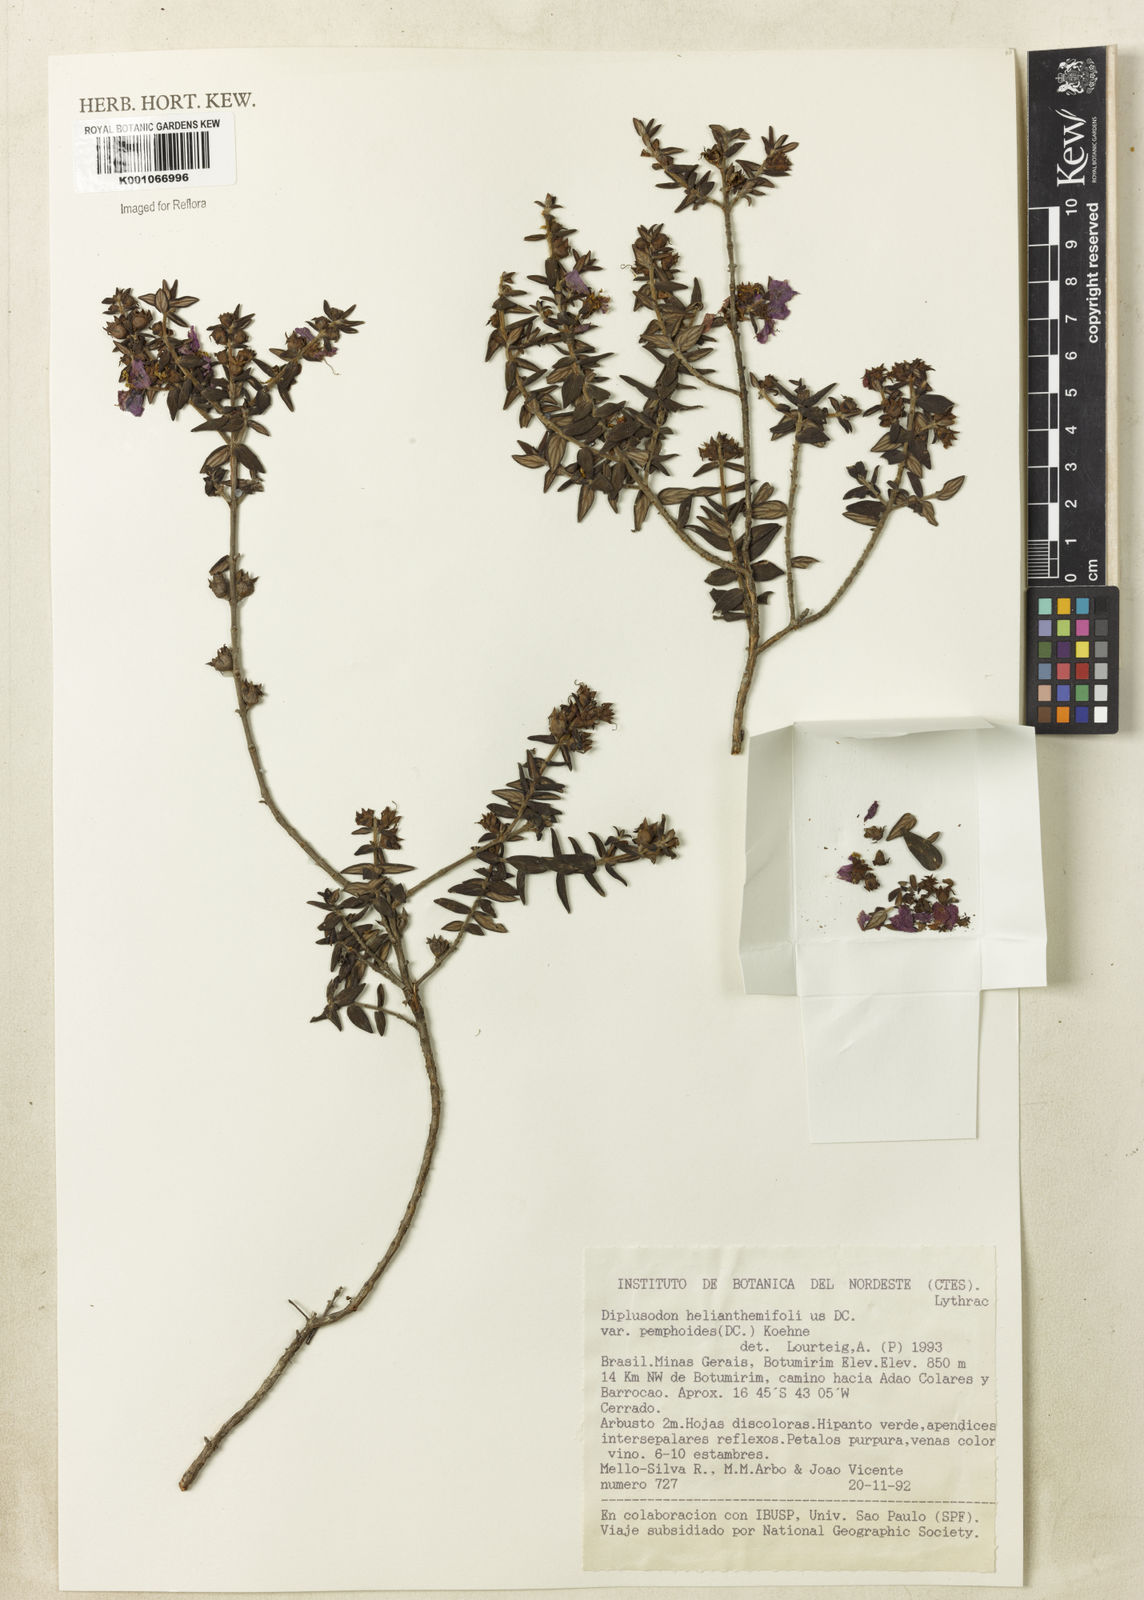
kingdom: Plantae
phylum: Tracheophyta
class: Magnoliopsida
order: Myrtales
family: Lythraceae
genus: Diplusodon
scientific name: Diplusodon helianthemifolius
